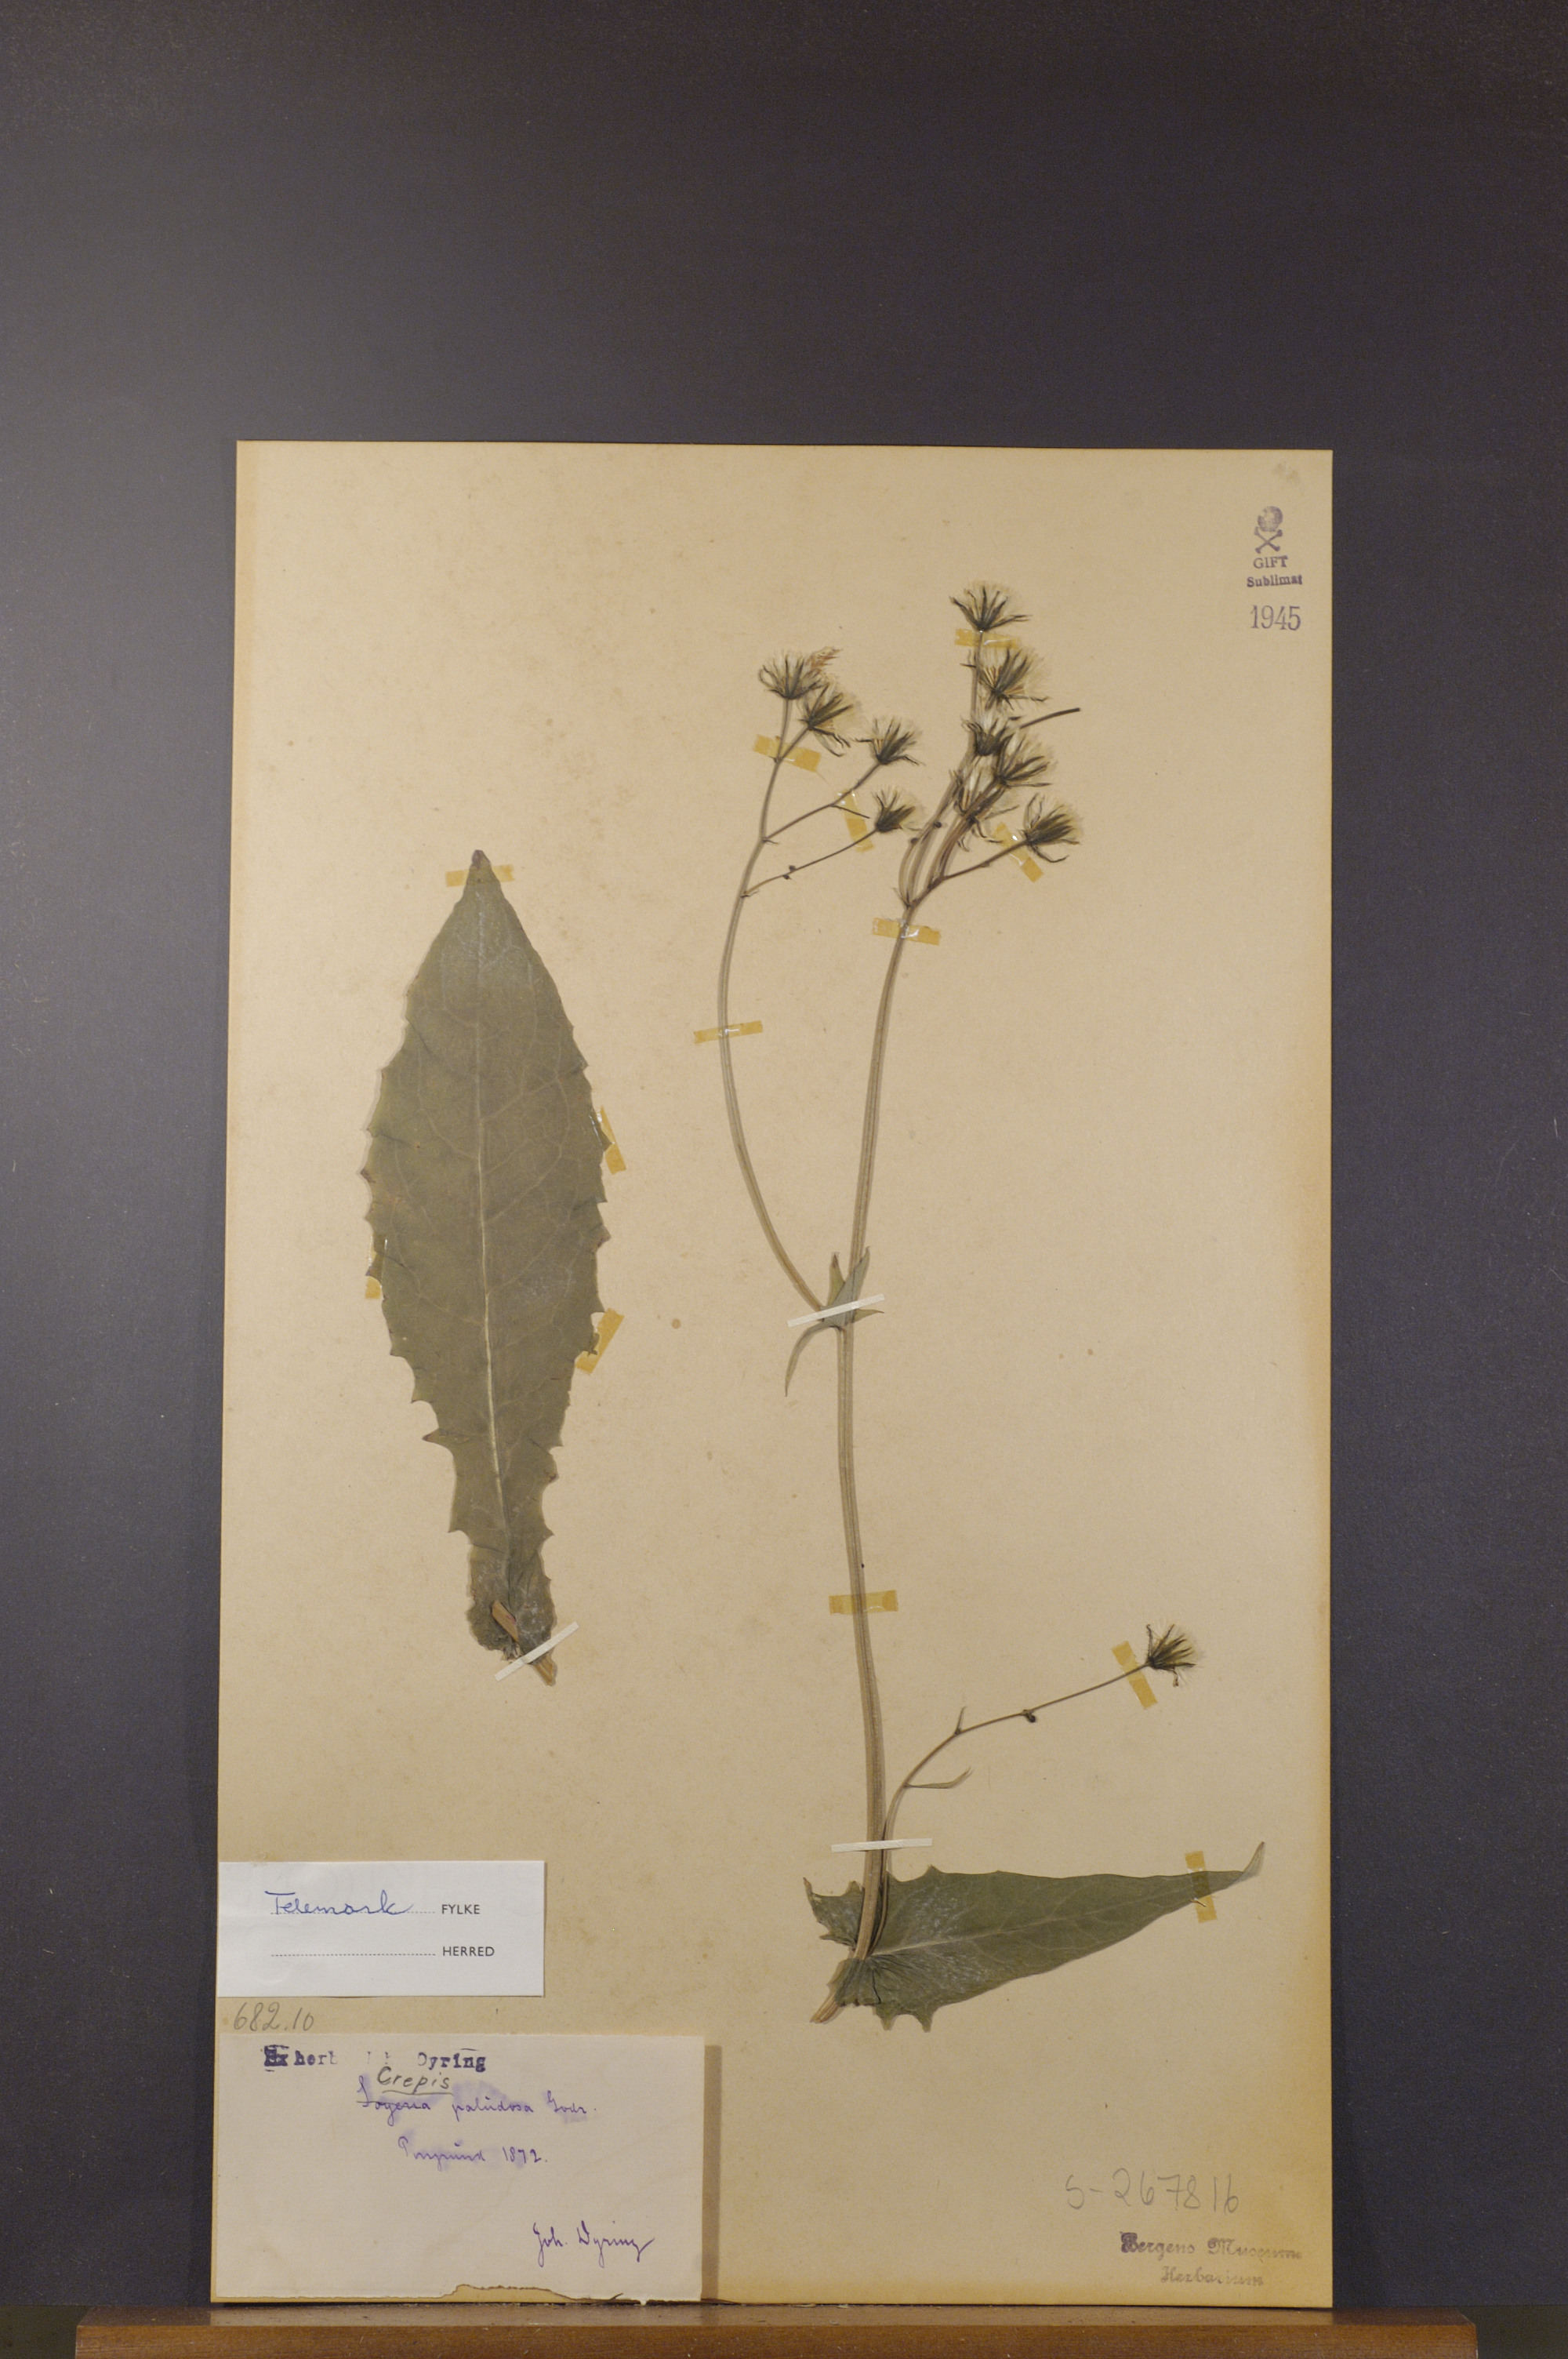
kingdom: Plantae
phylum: Tracheophyta
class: Magnoliopsida
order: Asterales
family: Asteraceae
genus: Crepis
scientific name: Crepis paludosa
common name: Marsh hawk's-beard
